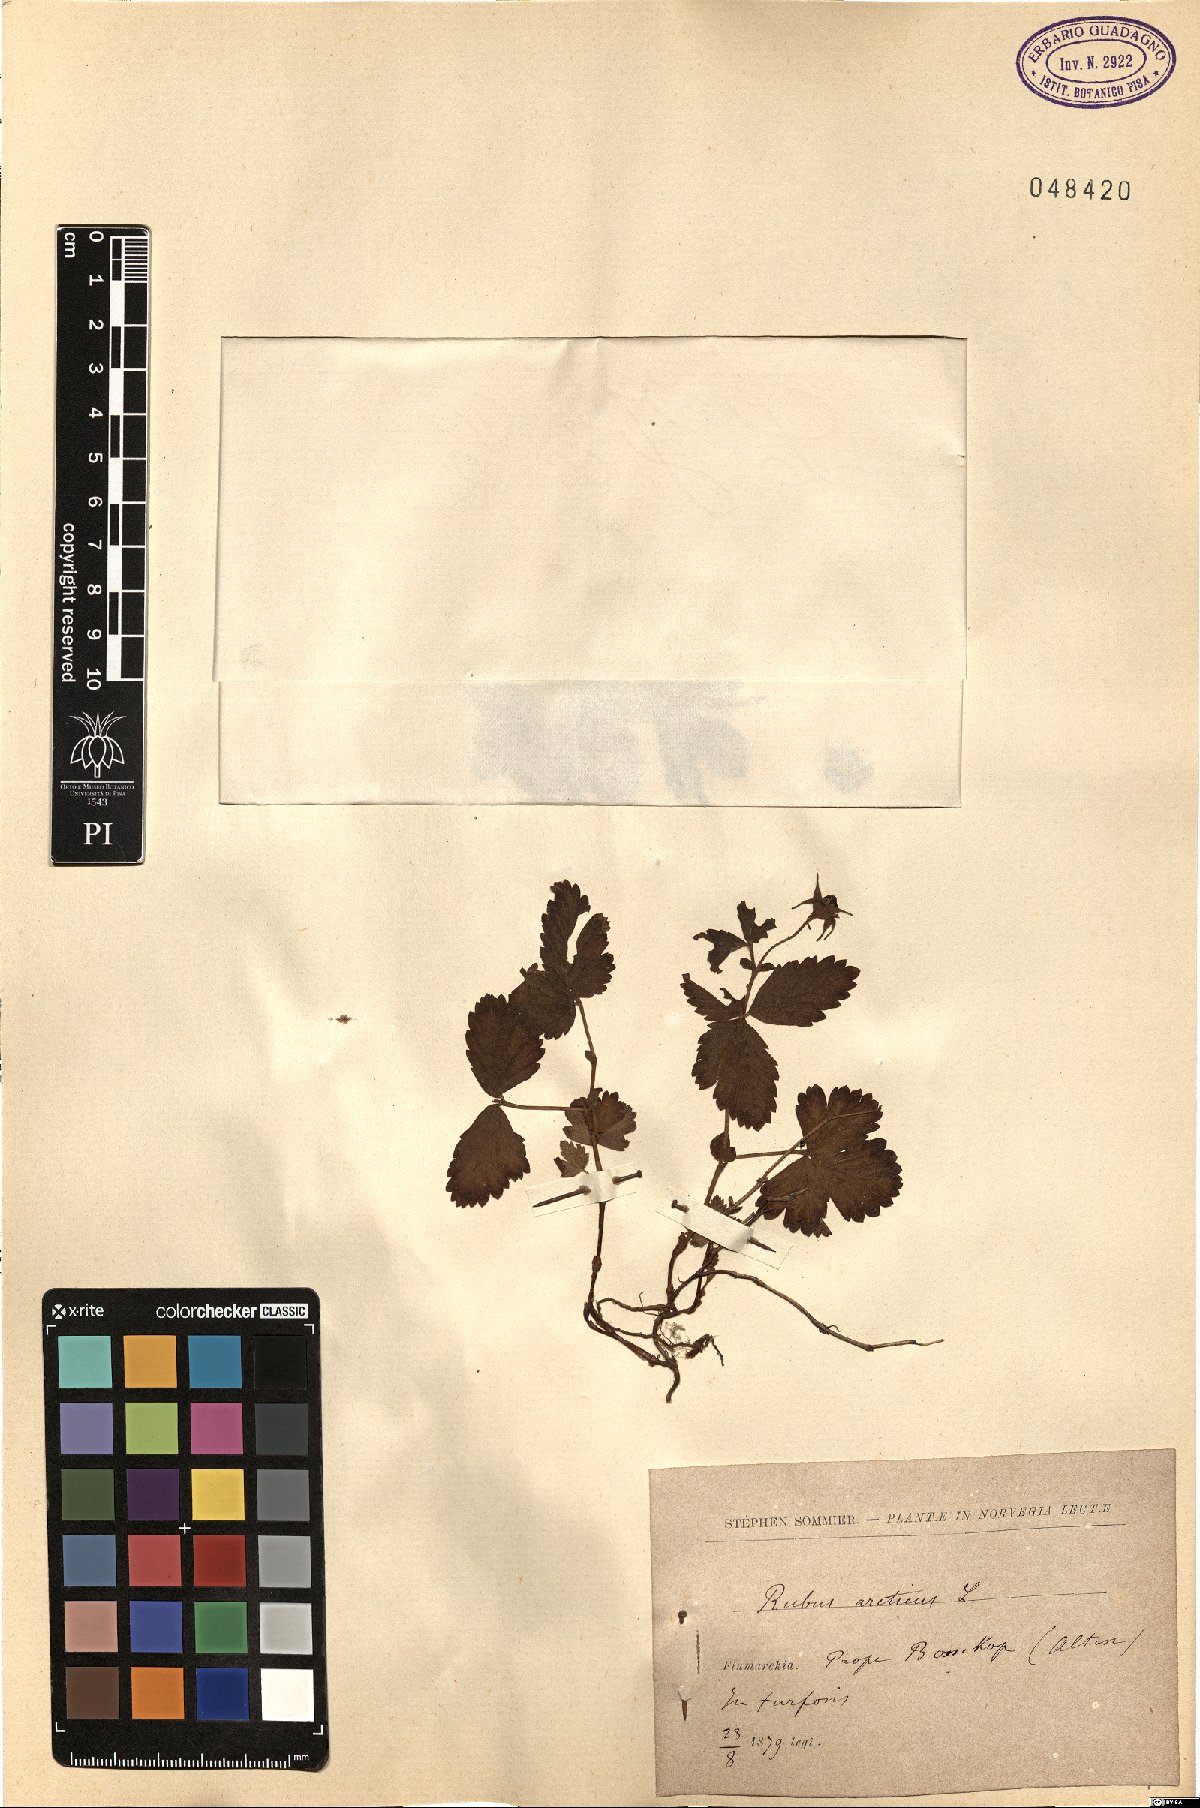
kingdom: Plantae
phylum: Tracheophyta
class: Magnoliopsida
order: Rosales
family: Rosaceae
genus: Rubus
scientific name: Rubus caesius
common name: Dewberry
